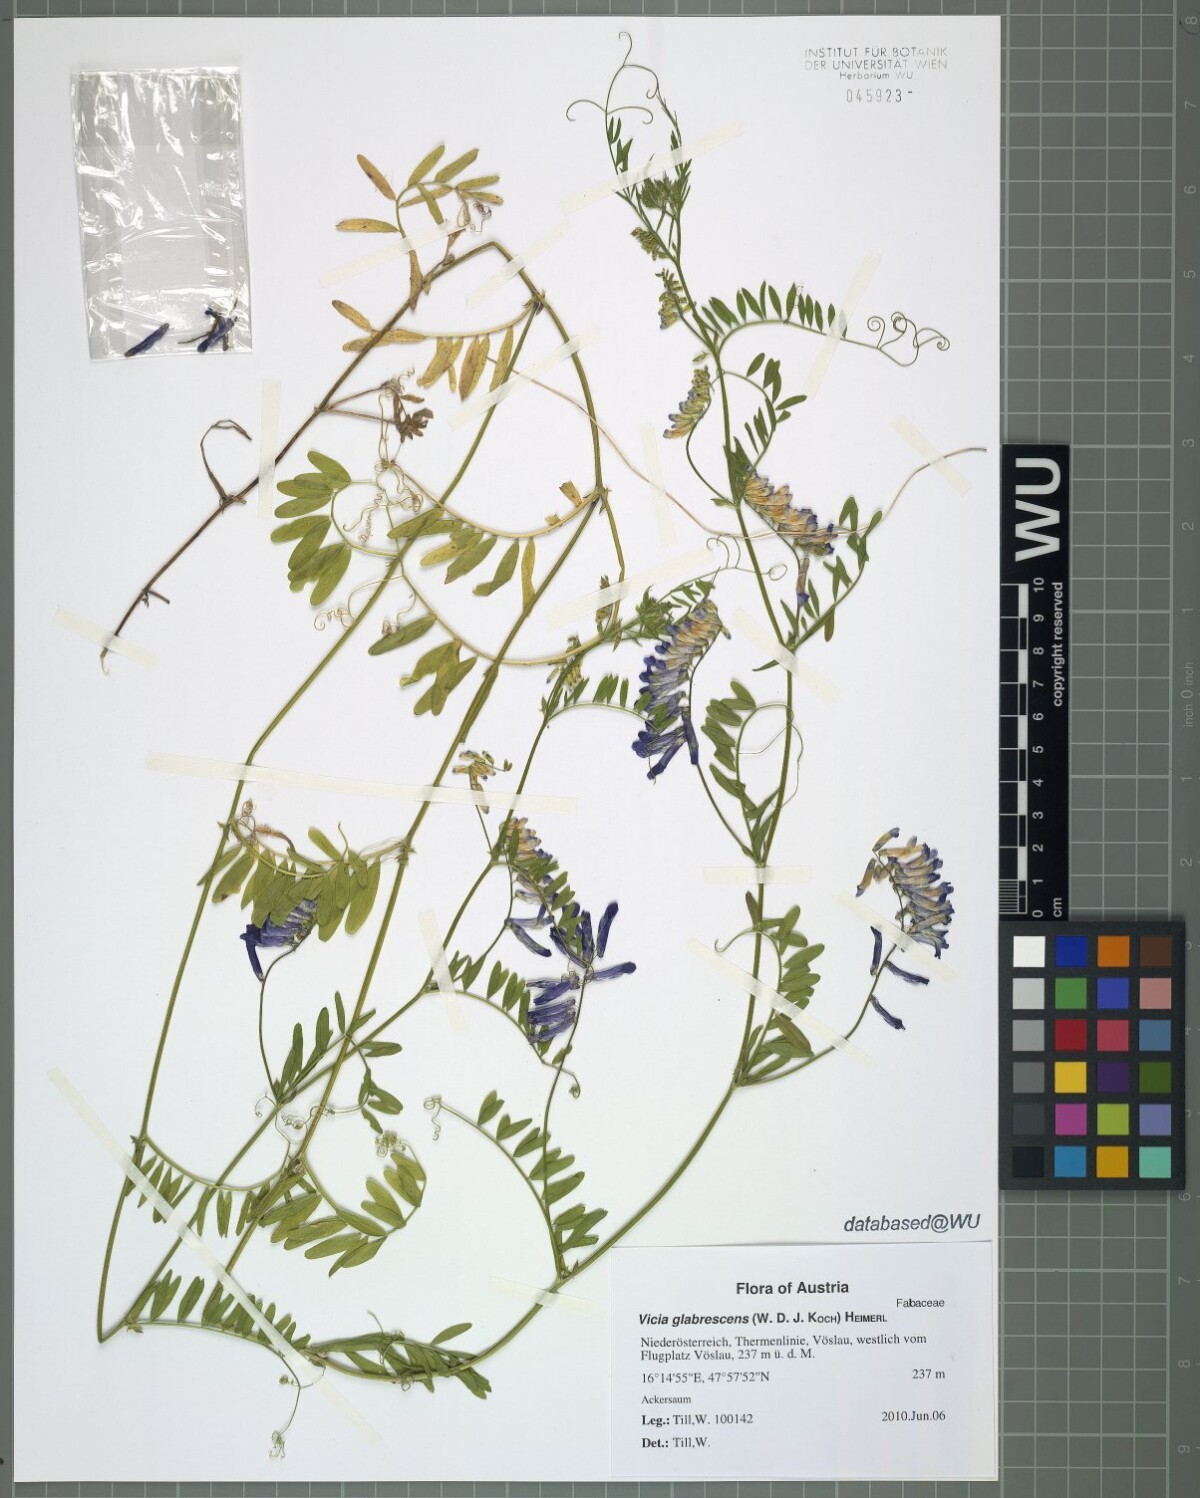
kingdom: Plantae
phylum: Tracheophyta
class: Magnoliopsida
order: Fabales
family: Fabaceae
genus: Vicia
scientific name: Vicia villosa
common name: Fodder vetch
